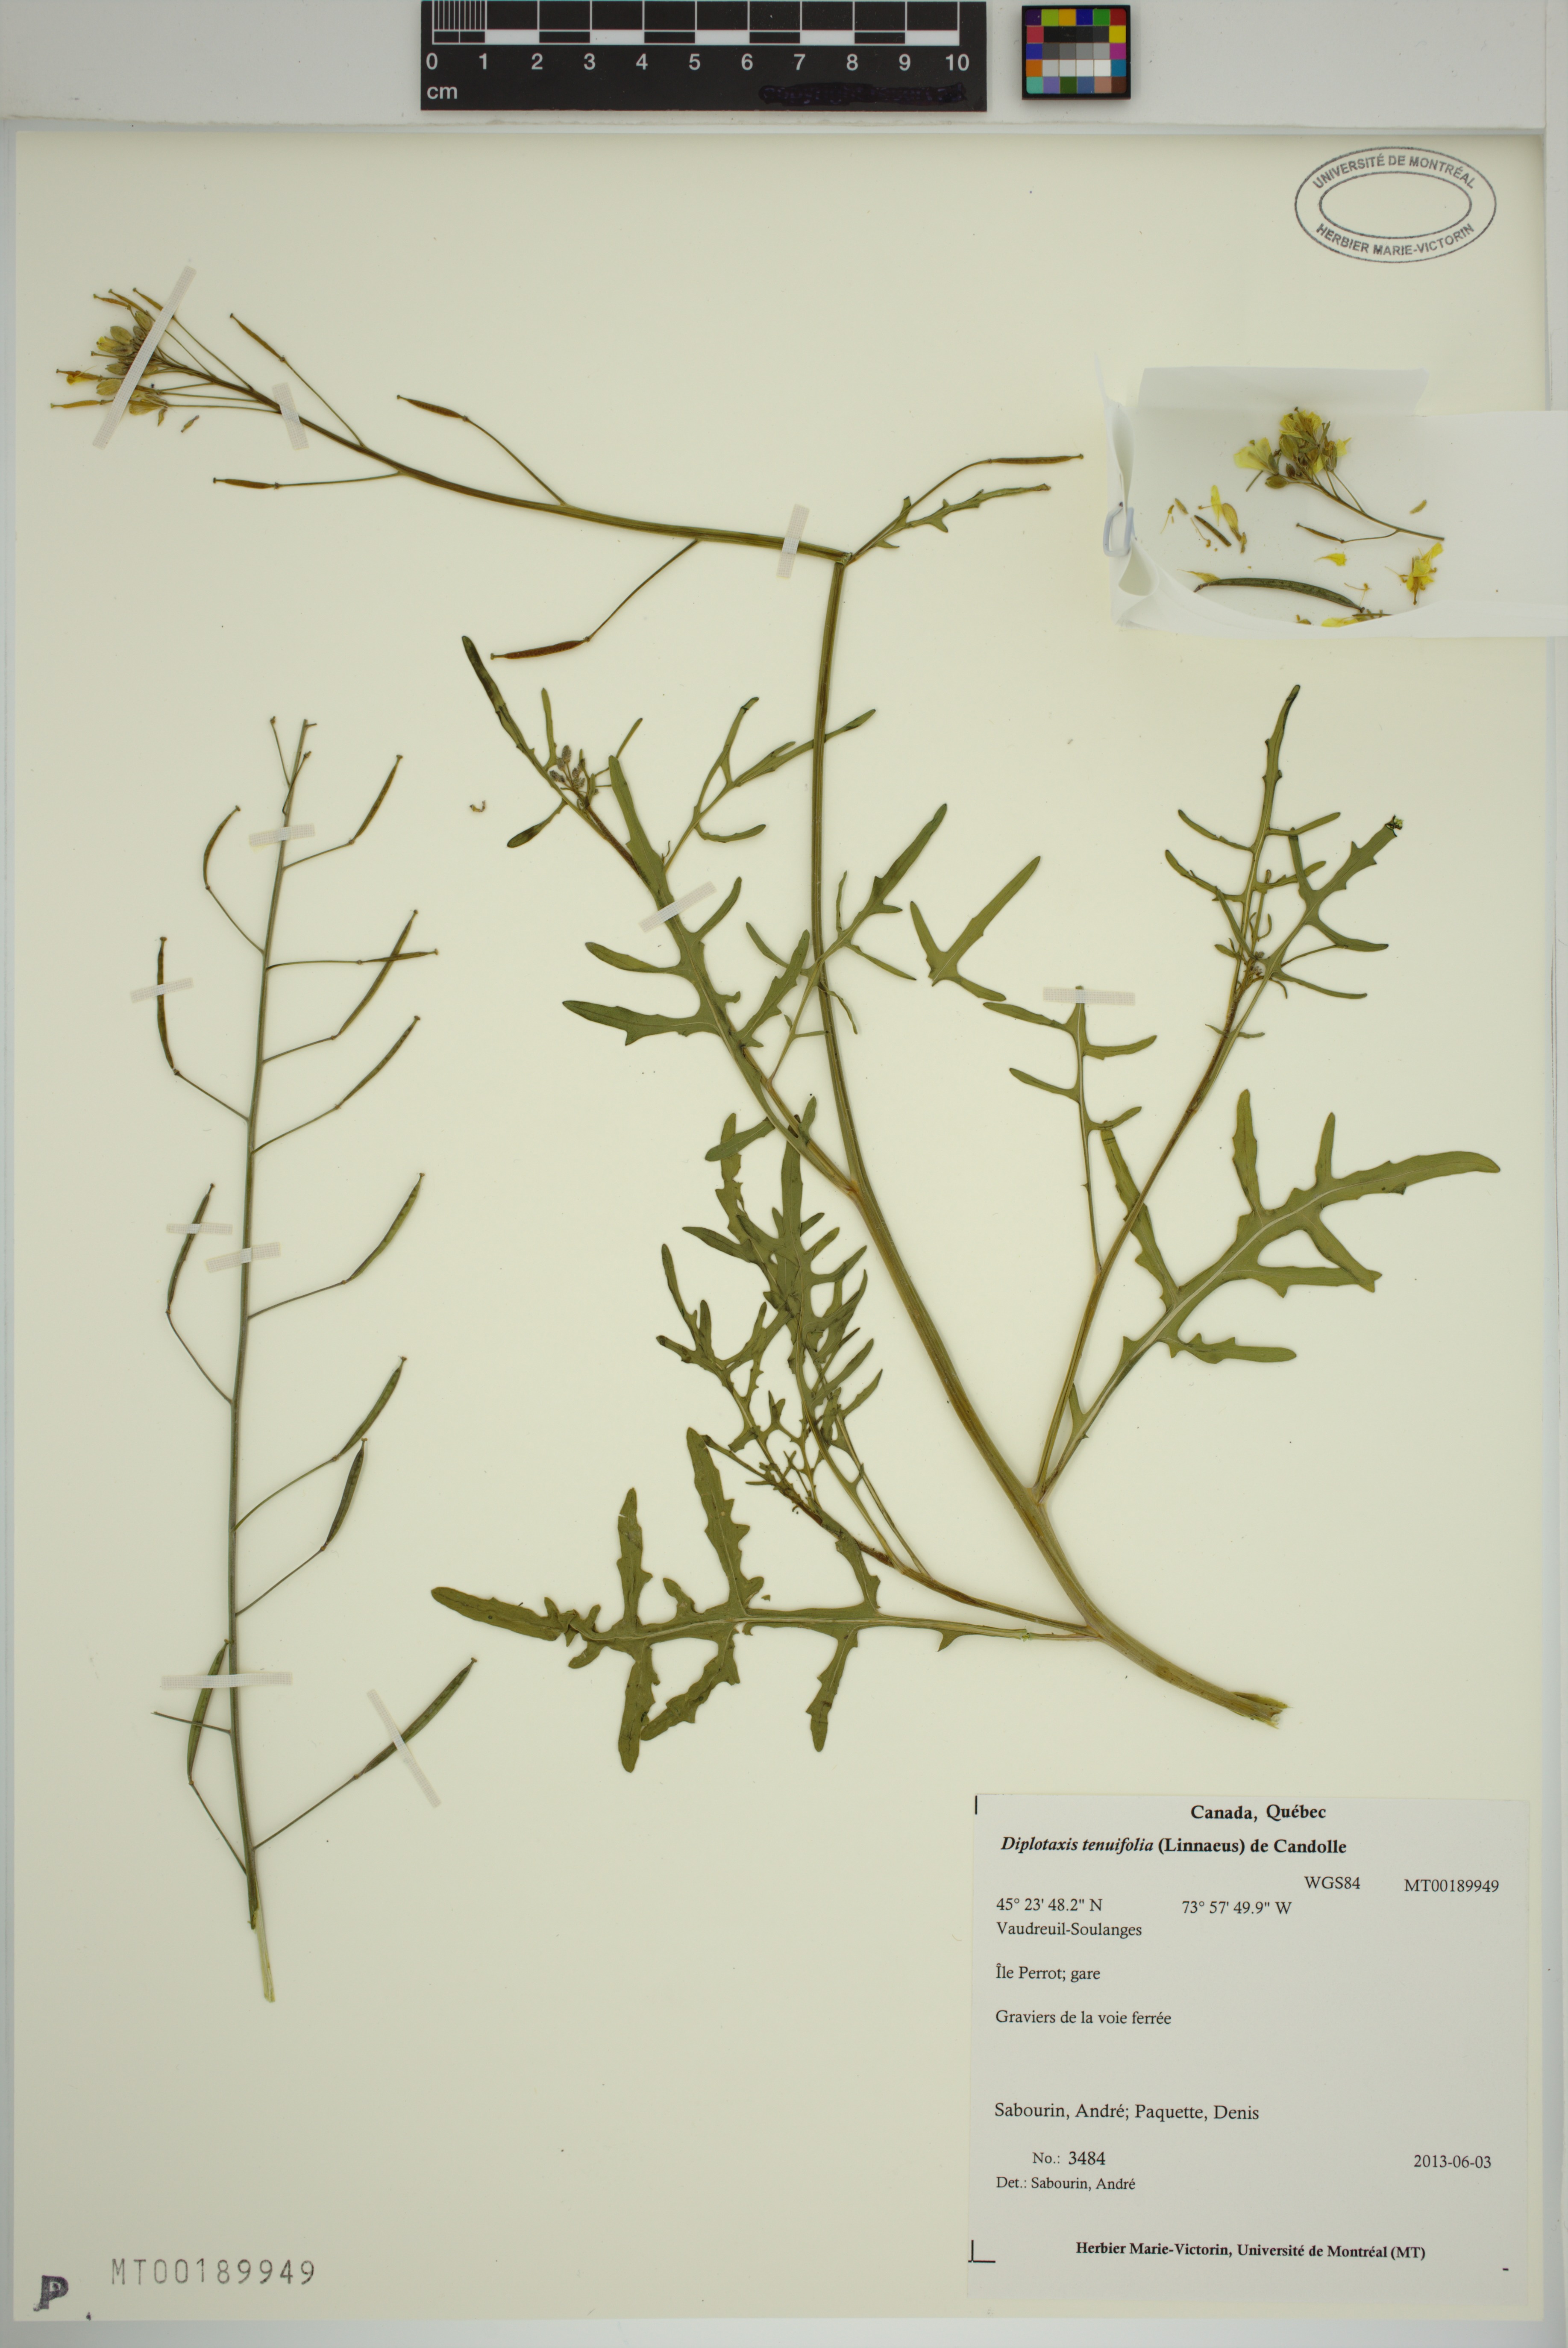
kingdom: Plantae
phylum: Tracheophyta
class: Magnoliopsida
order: Brassicales
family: Brassicaceae
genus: Diplotaxis
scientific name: Diplotaxis tenuifolia
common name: Perennial wall-rocket
